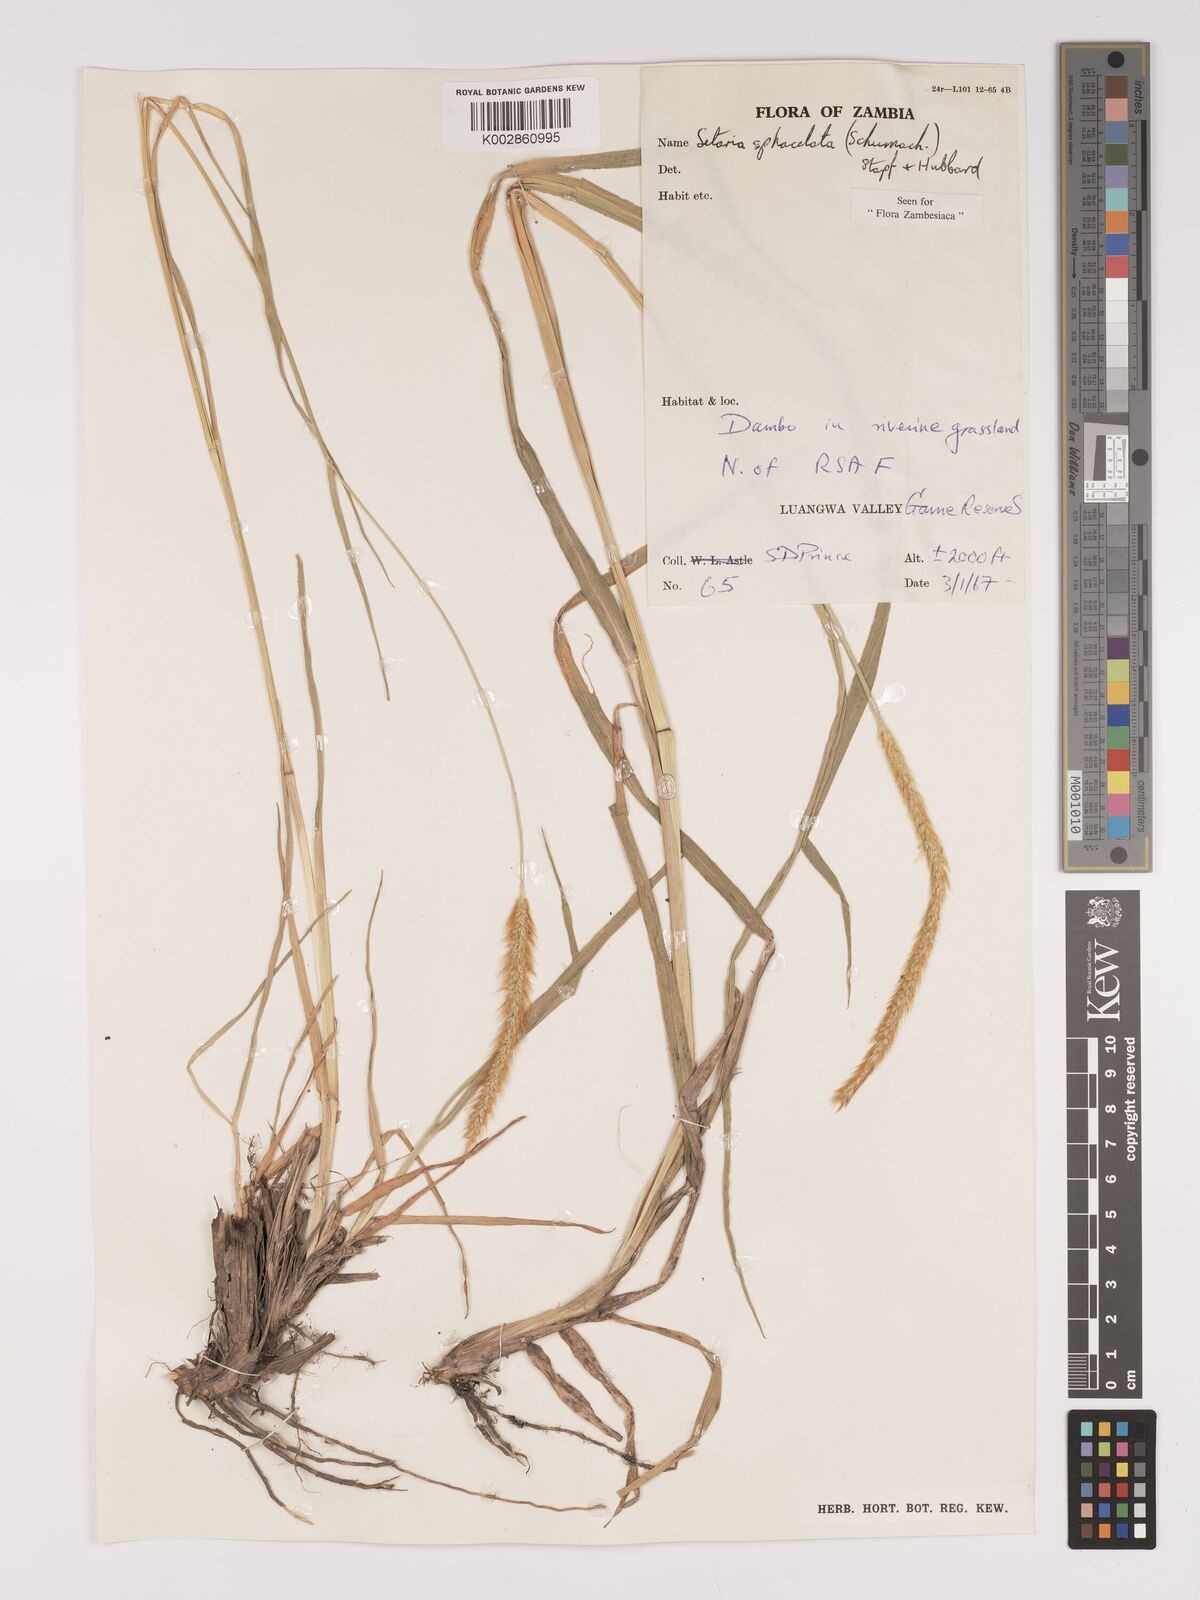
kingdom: Plantae
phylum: Tracheophyta
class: Liliopsida
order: Poales
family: Poaceae
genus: Setaria
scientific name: Setaria sphacelata
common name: African bristlegrass
